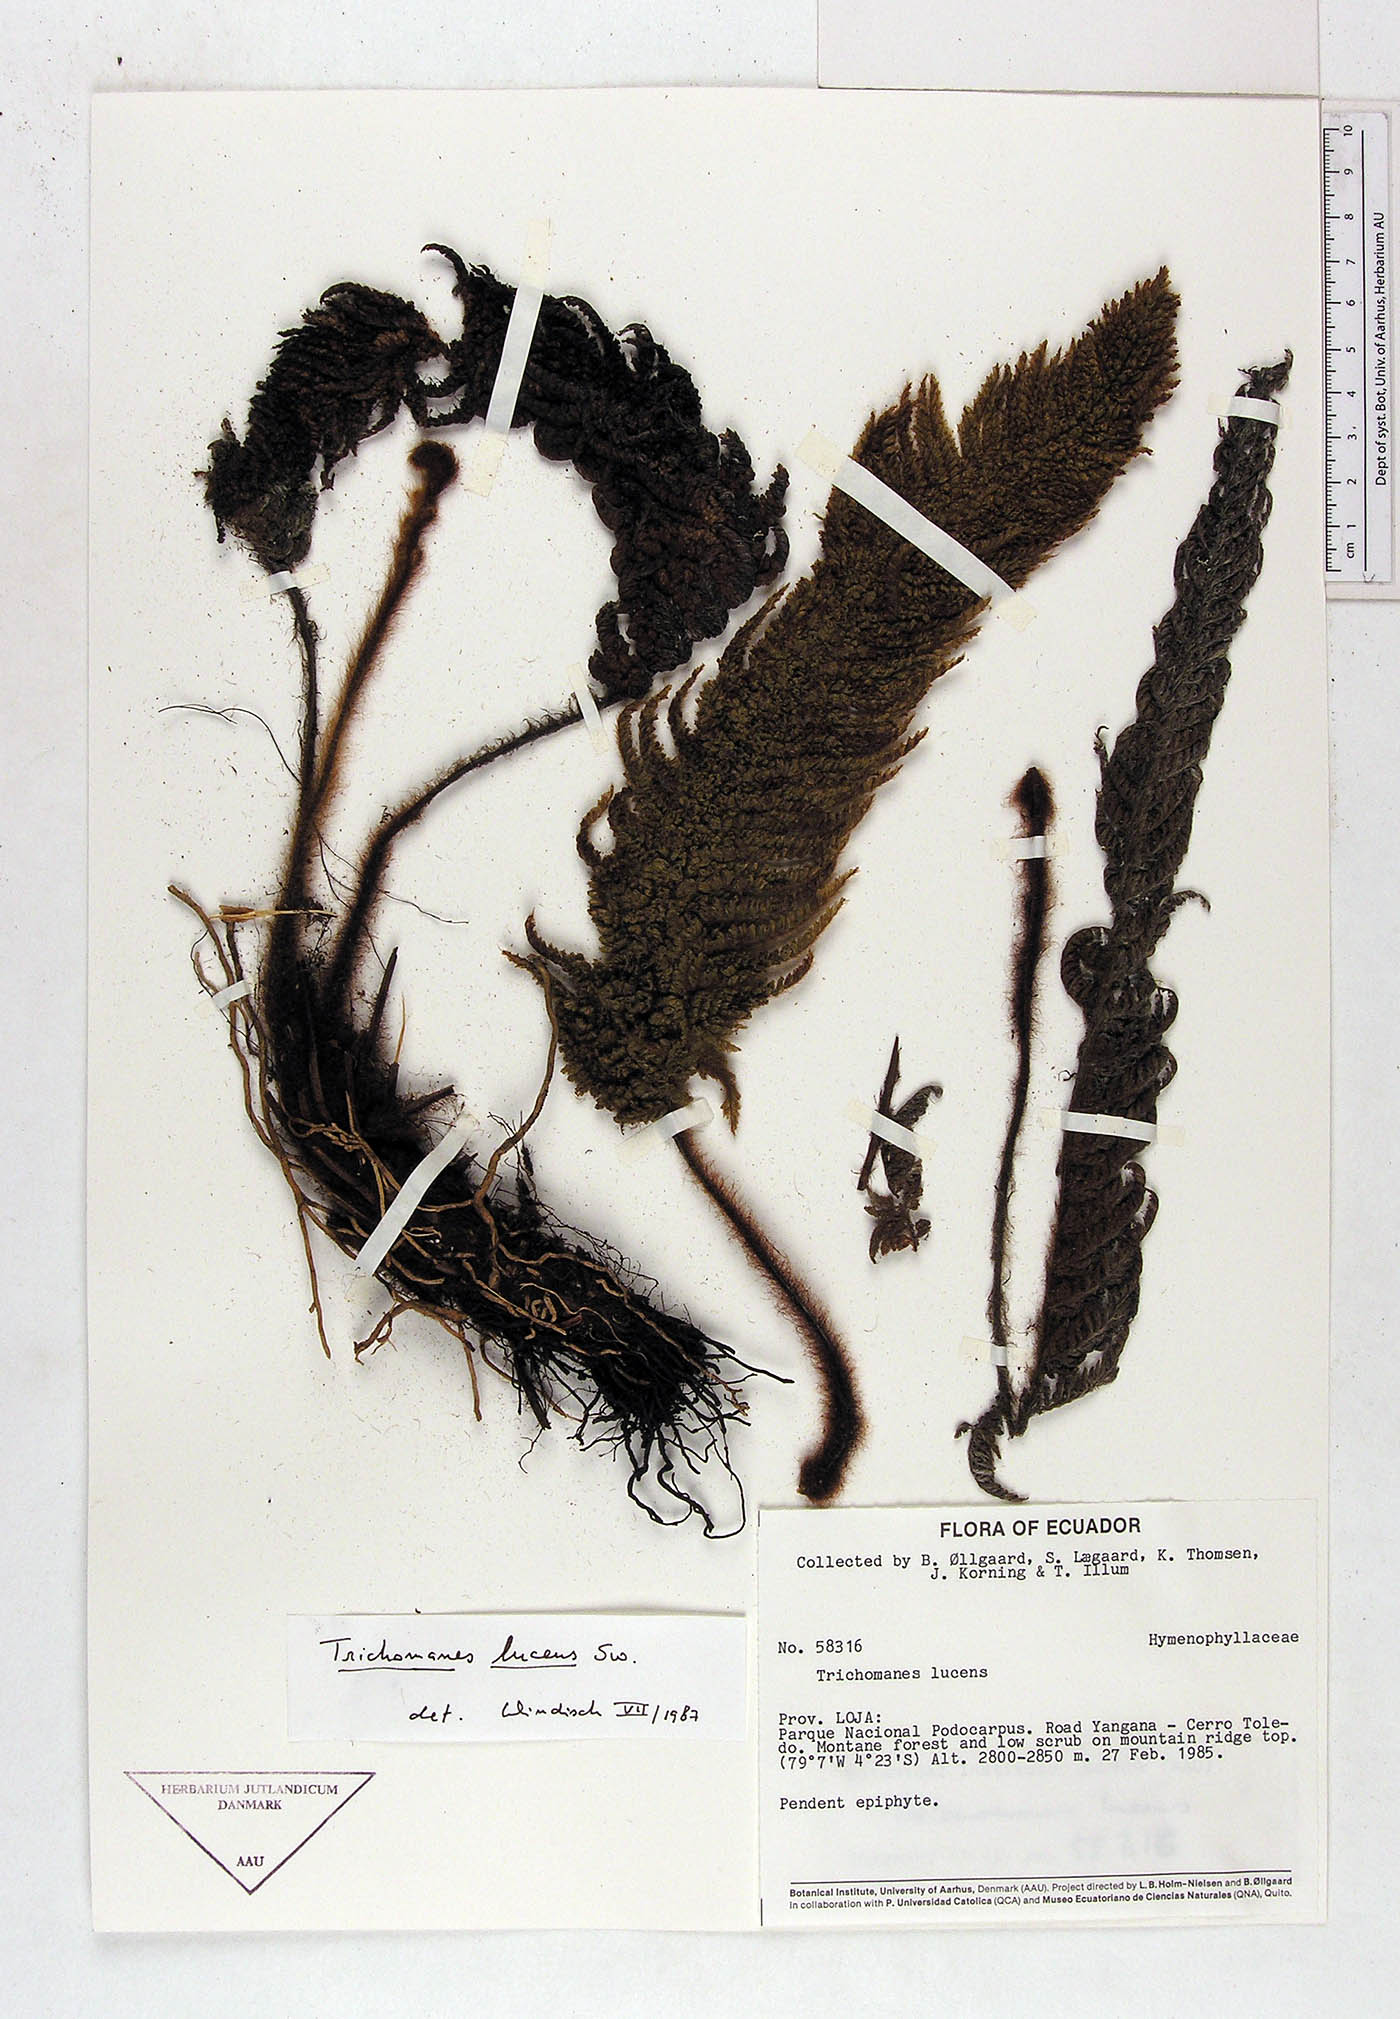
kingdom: Plantae
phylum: Tracheophyta
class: Polypodiopsida
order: Hymenophyllales
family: Hymenophyllaceae
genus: Trichomanes
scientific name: Trichomanes lucens
